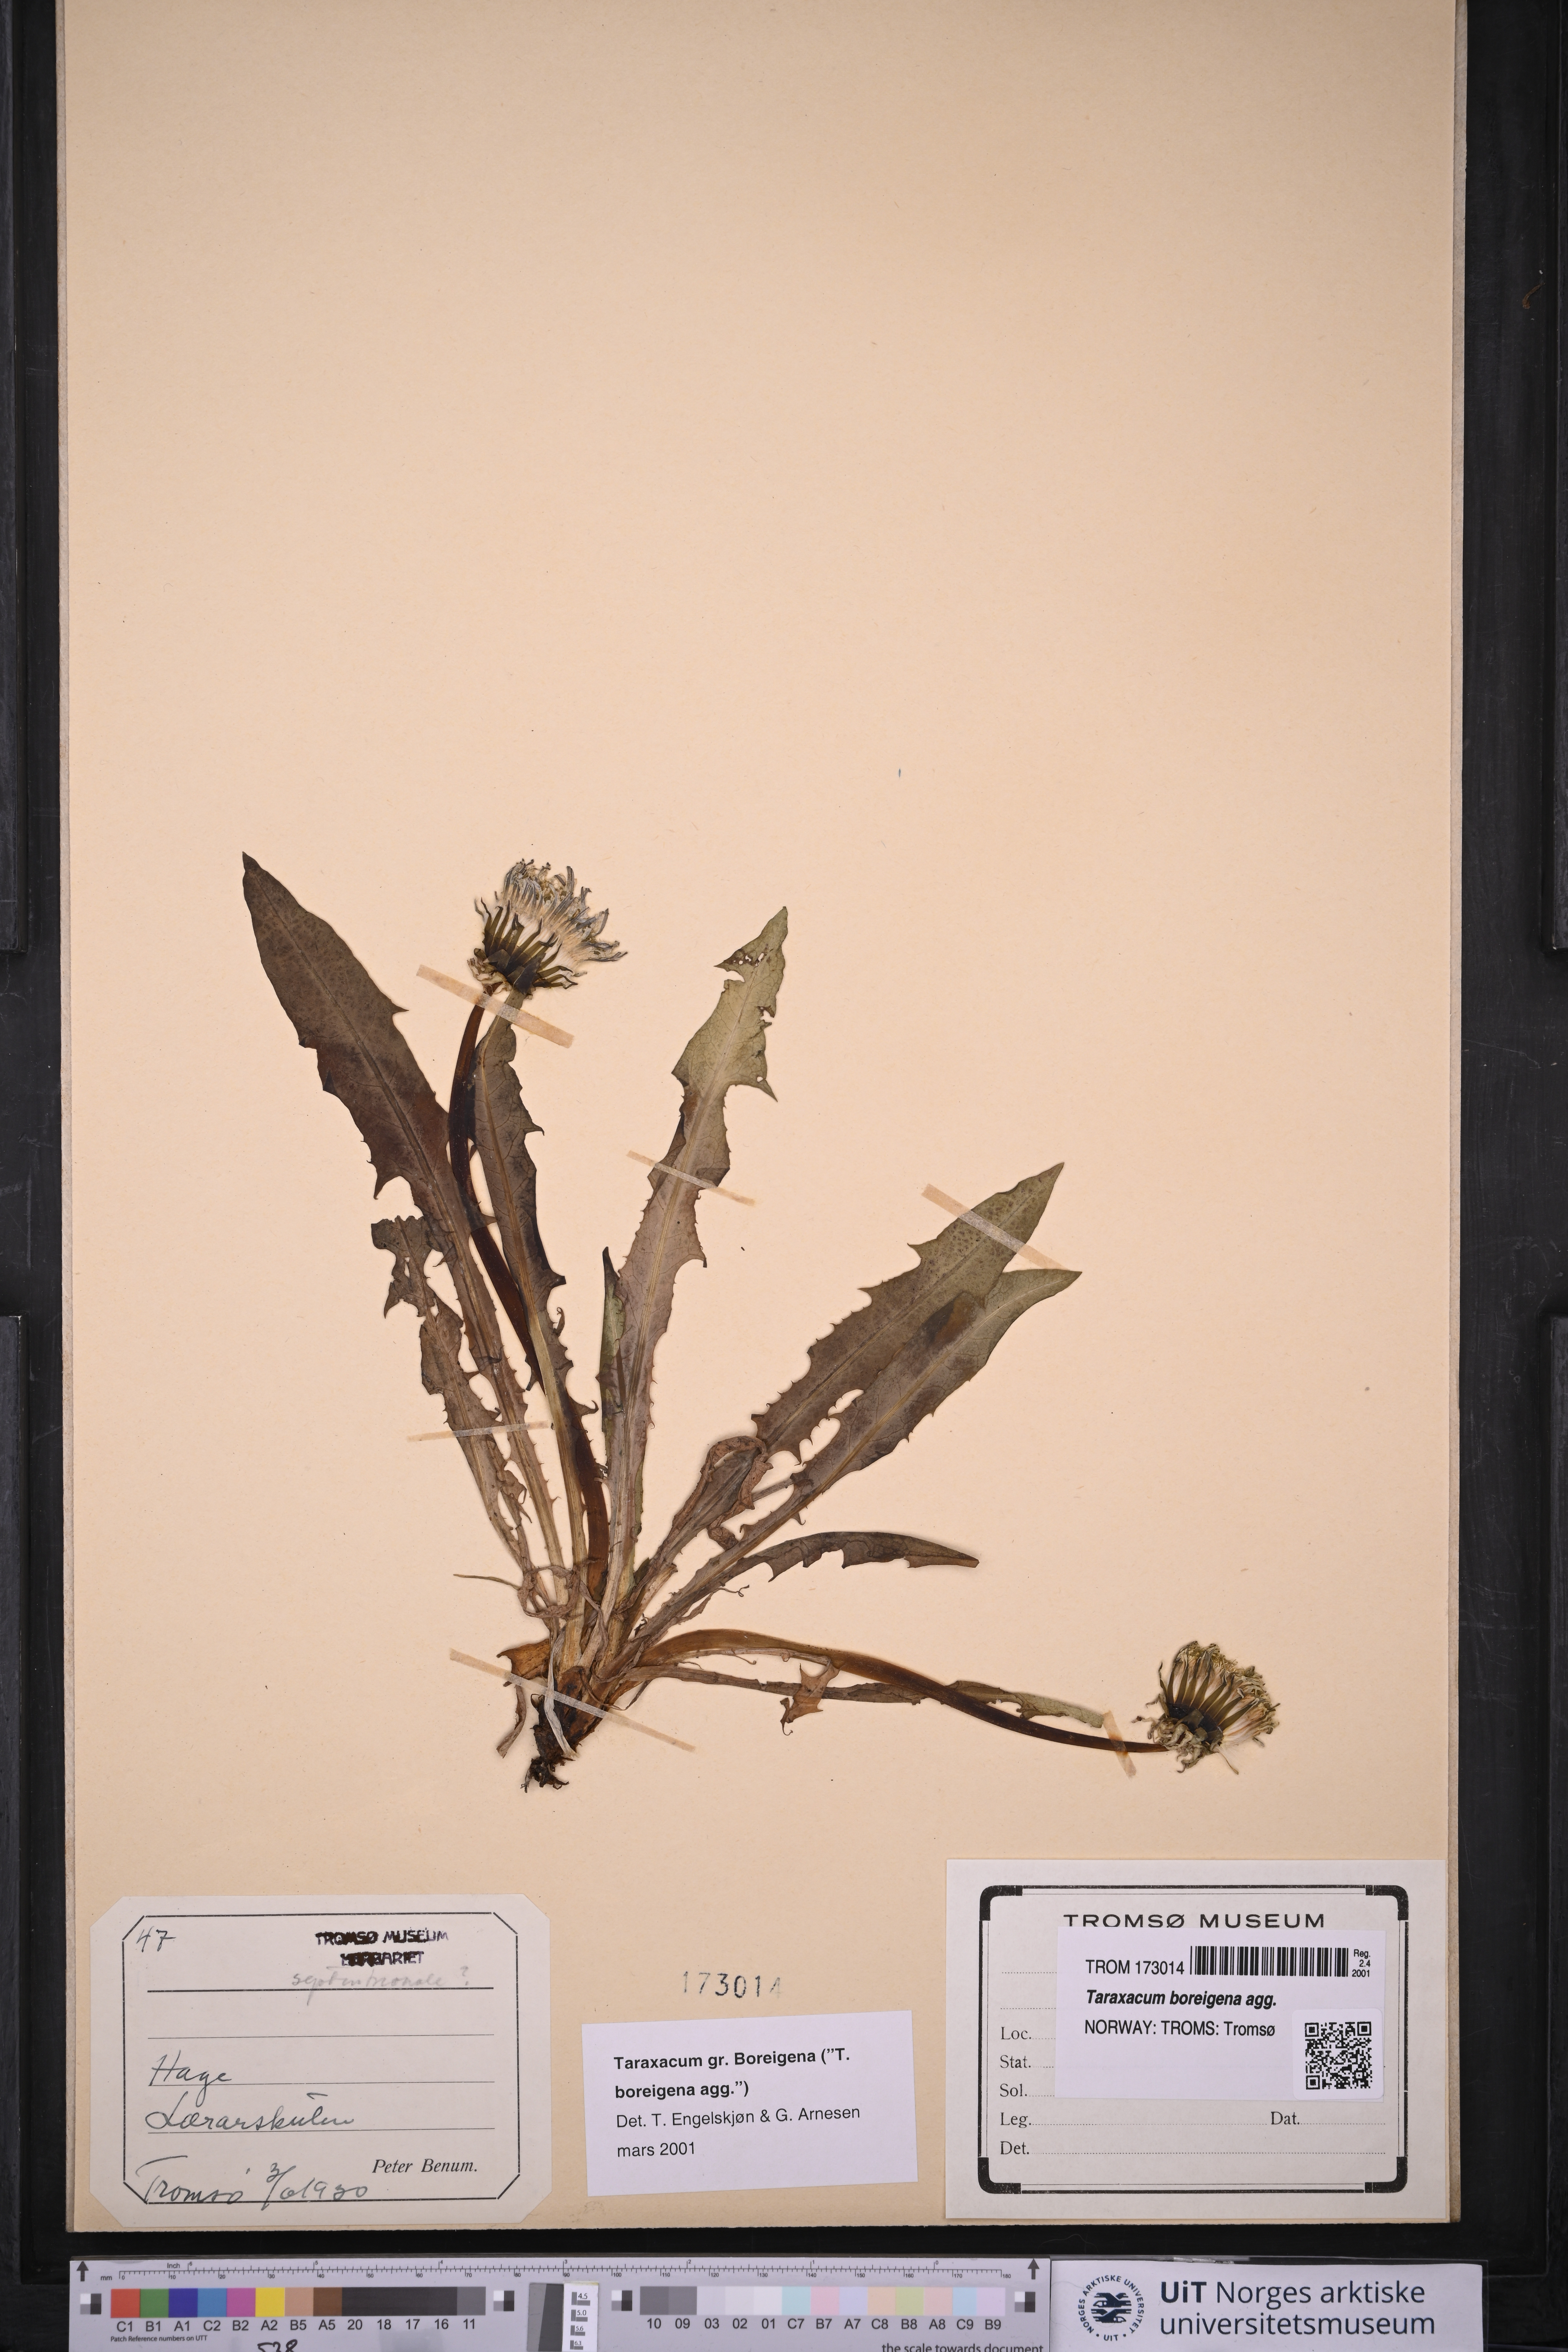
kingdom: Plantae
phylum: Tracheophyta
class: Magnoliopsida
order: Asterales
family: Asteraceae
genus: Taraxacum
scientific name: Taraxacum
